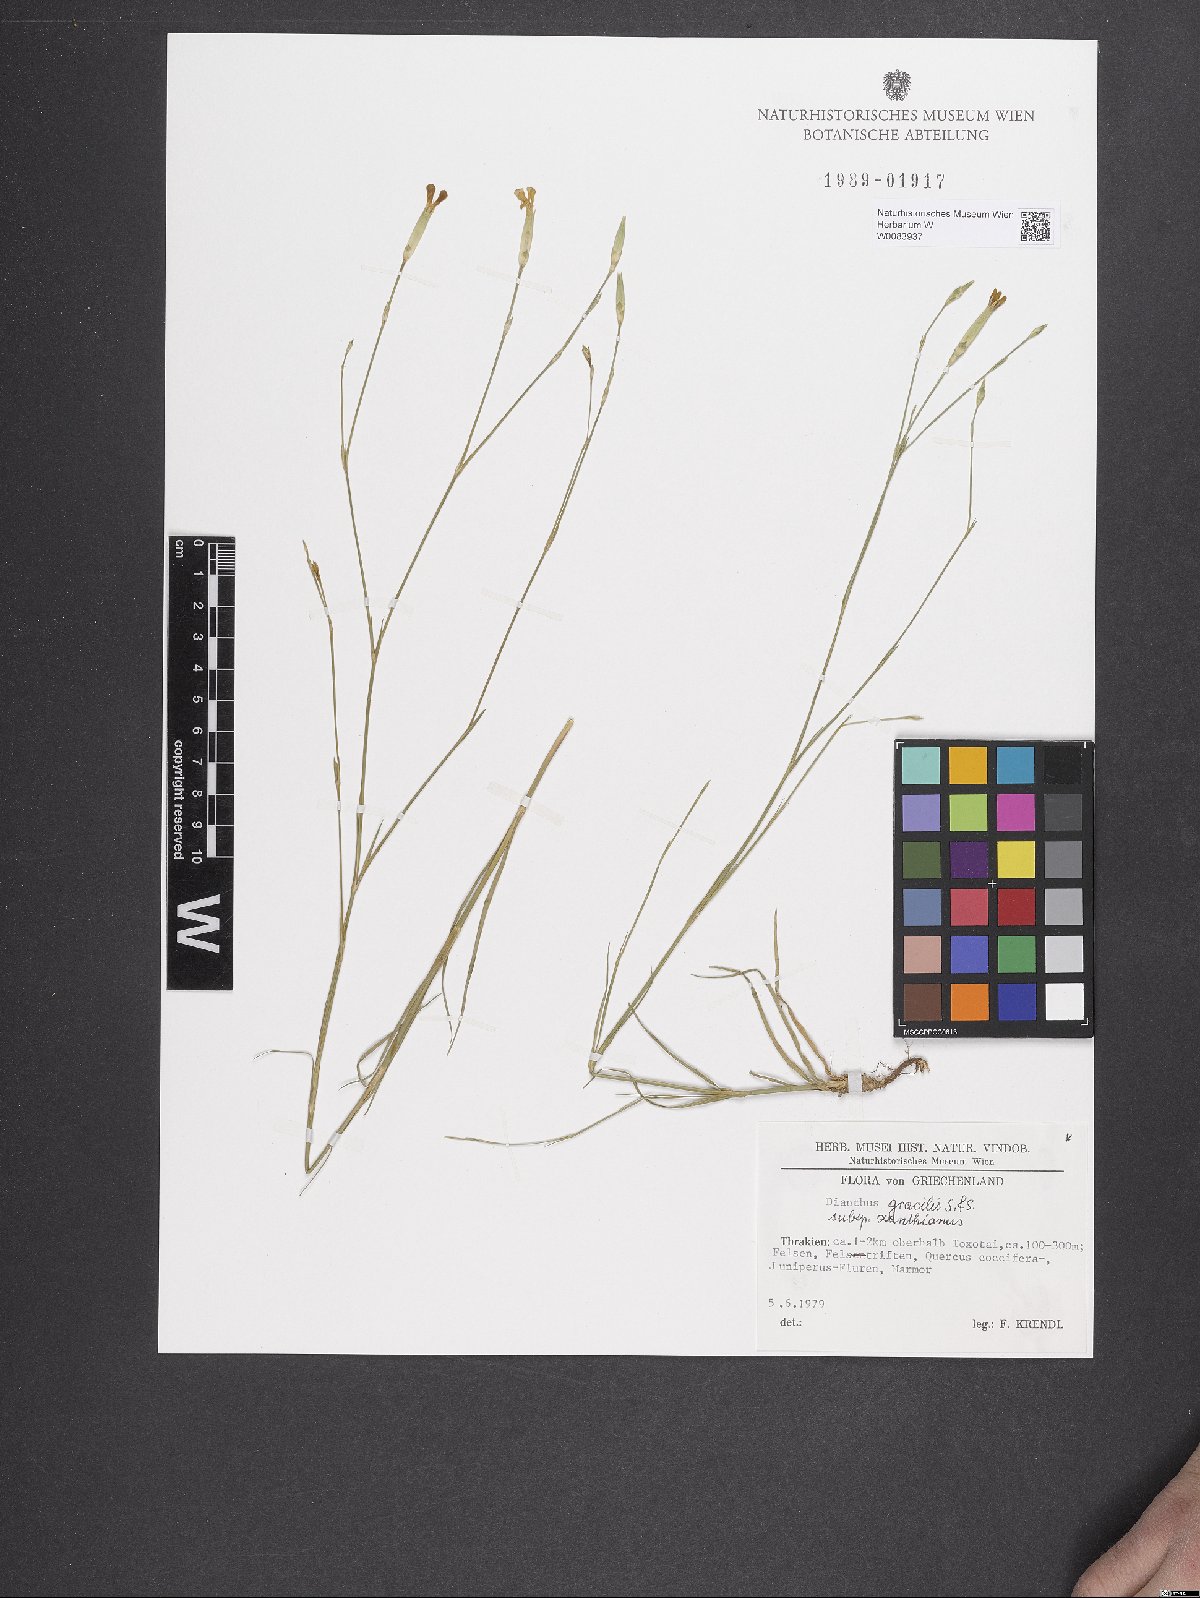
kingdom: Plantae
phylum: Tracheophyta
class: Magnoliopsida
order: Caryophyllales
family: Caryophyllaceae
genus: Dianthus
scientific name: Dianthus gracilis
